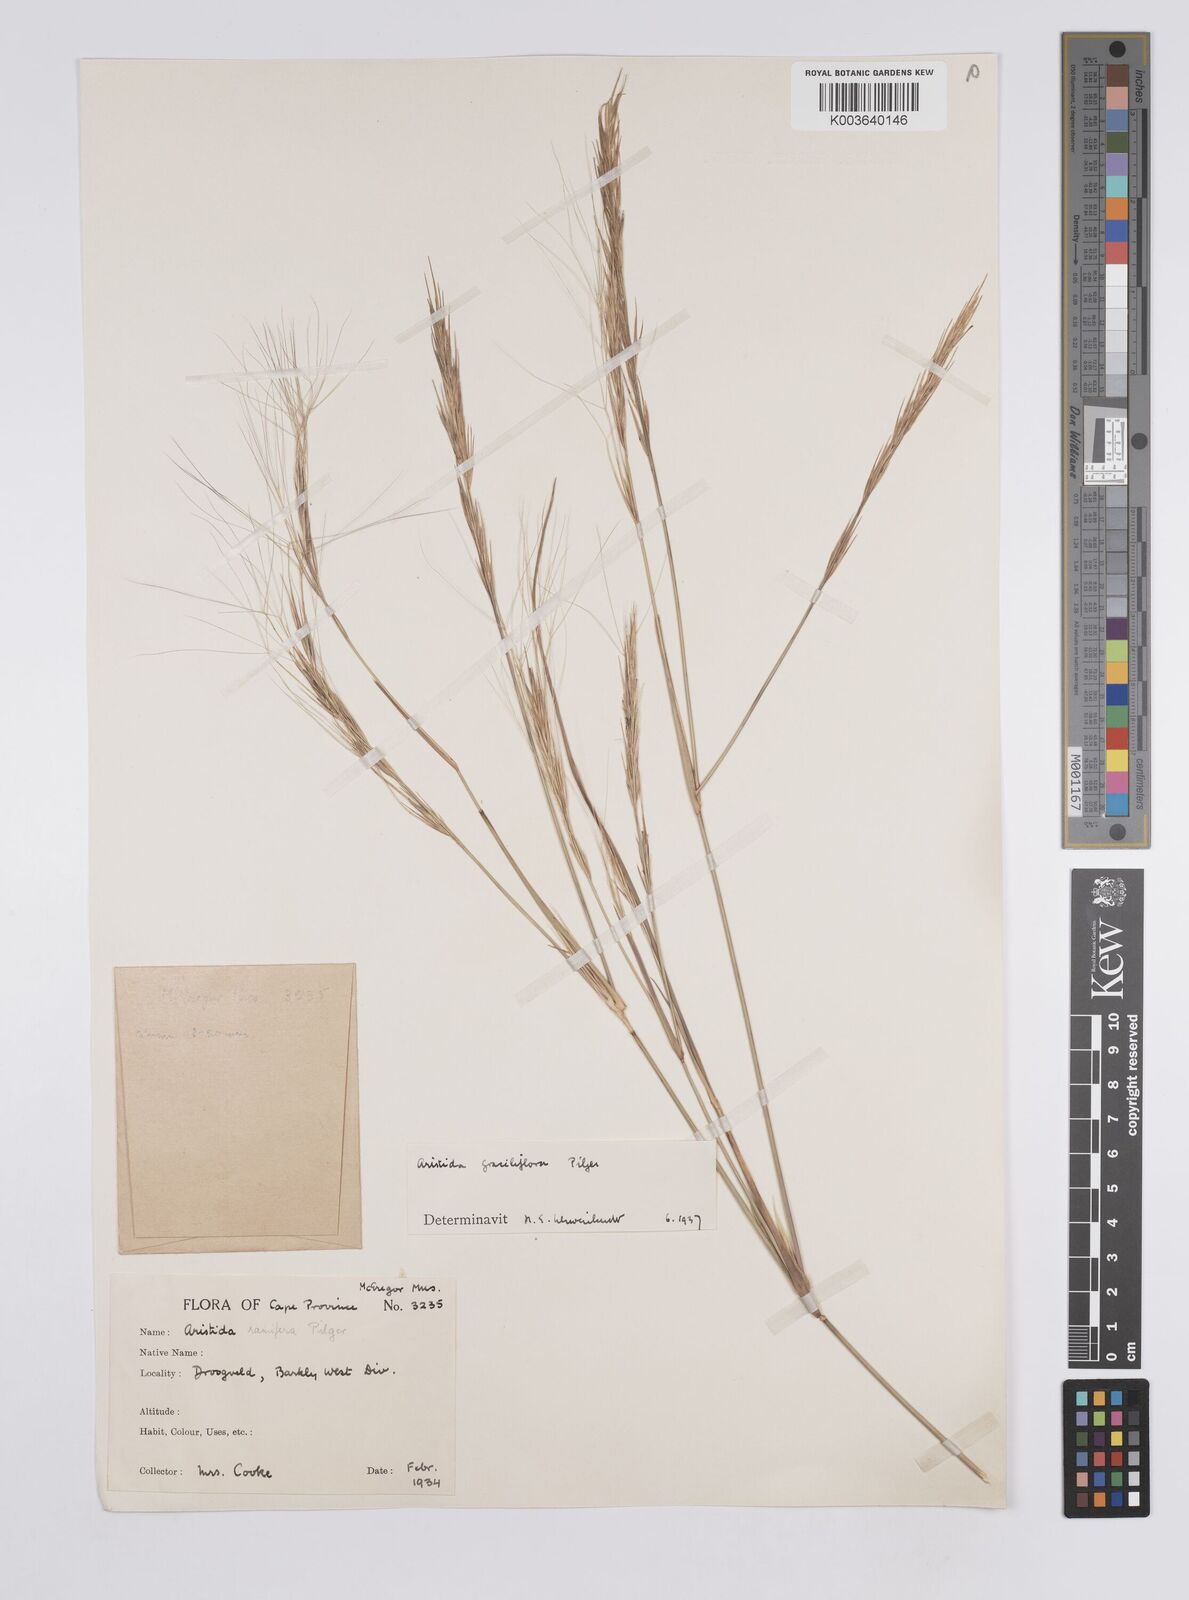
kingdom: Plantae
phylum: Tracheophyta
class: Liliopsida
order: Poales
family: Poaceae
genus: Aristida
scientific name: Aristida stipitata
